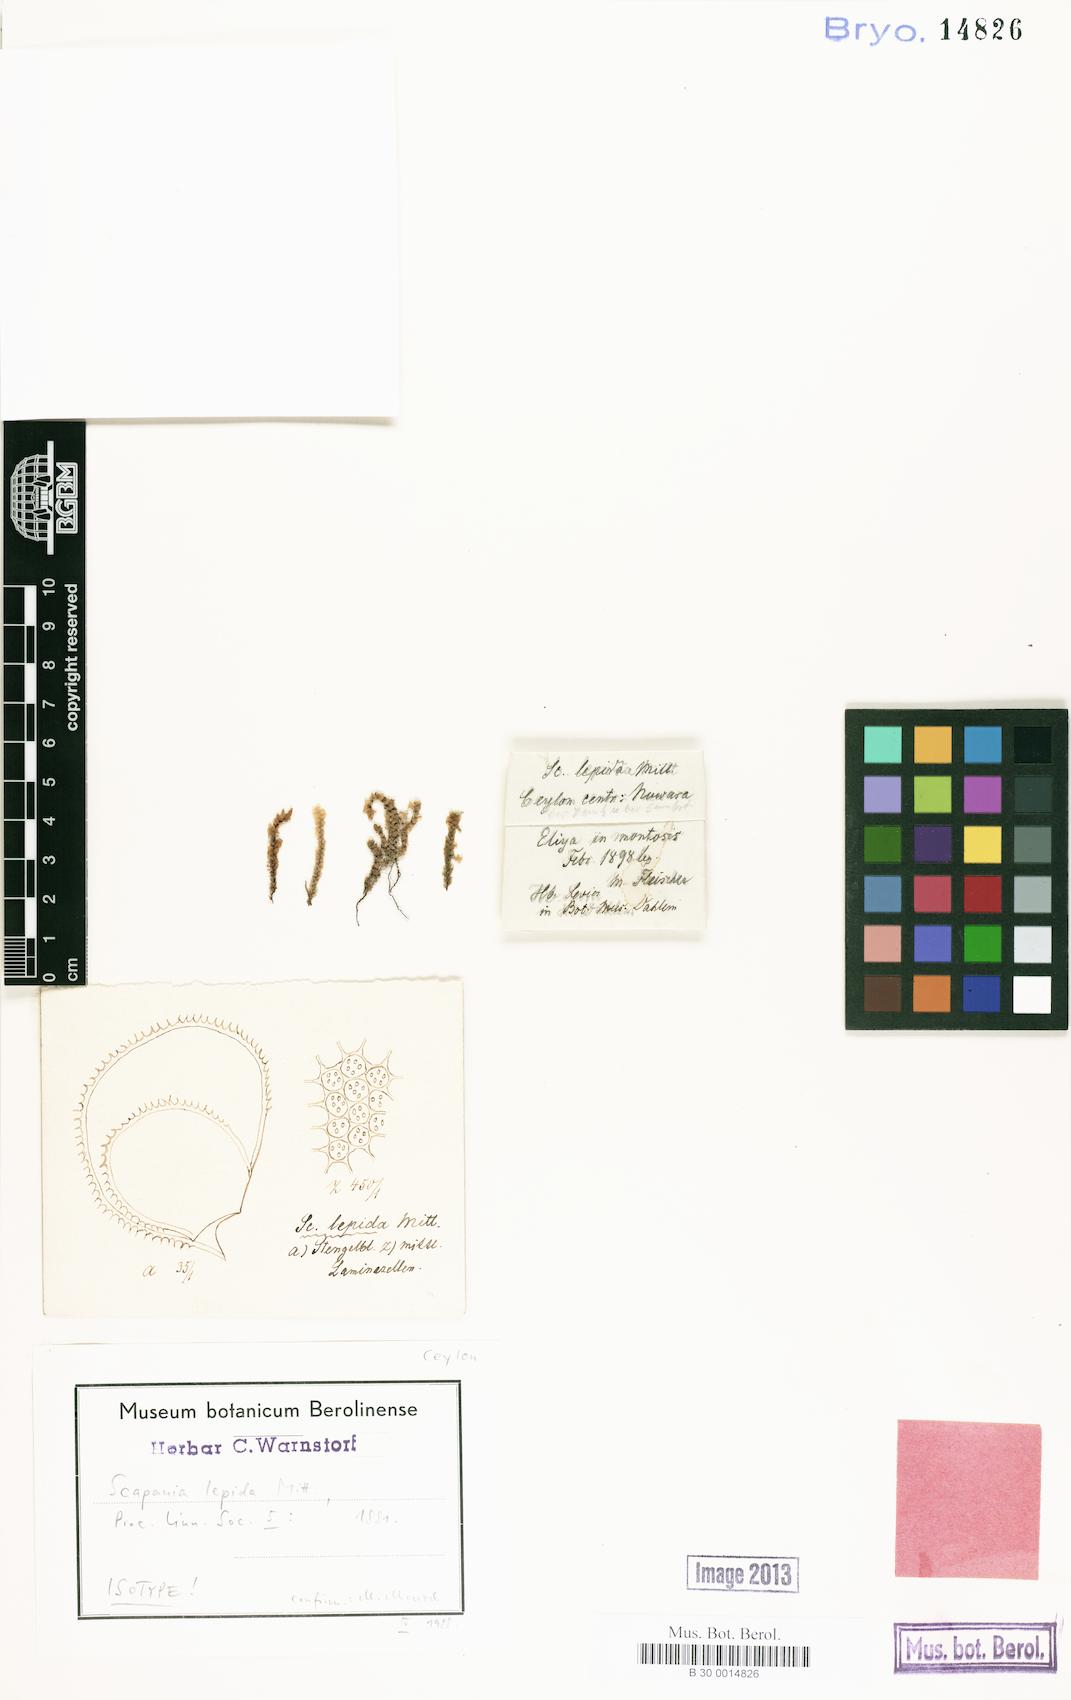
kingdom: Plantae
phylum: Marchantiophyta
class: Jungermanniopsida
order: Jungermanniales
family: Scapaniaceae
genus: Scapania
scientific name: Scapania lepida
